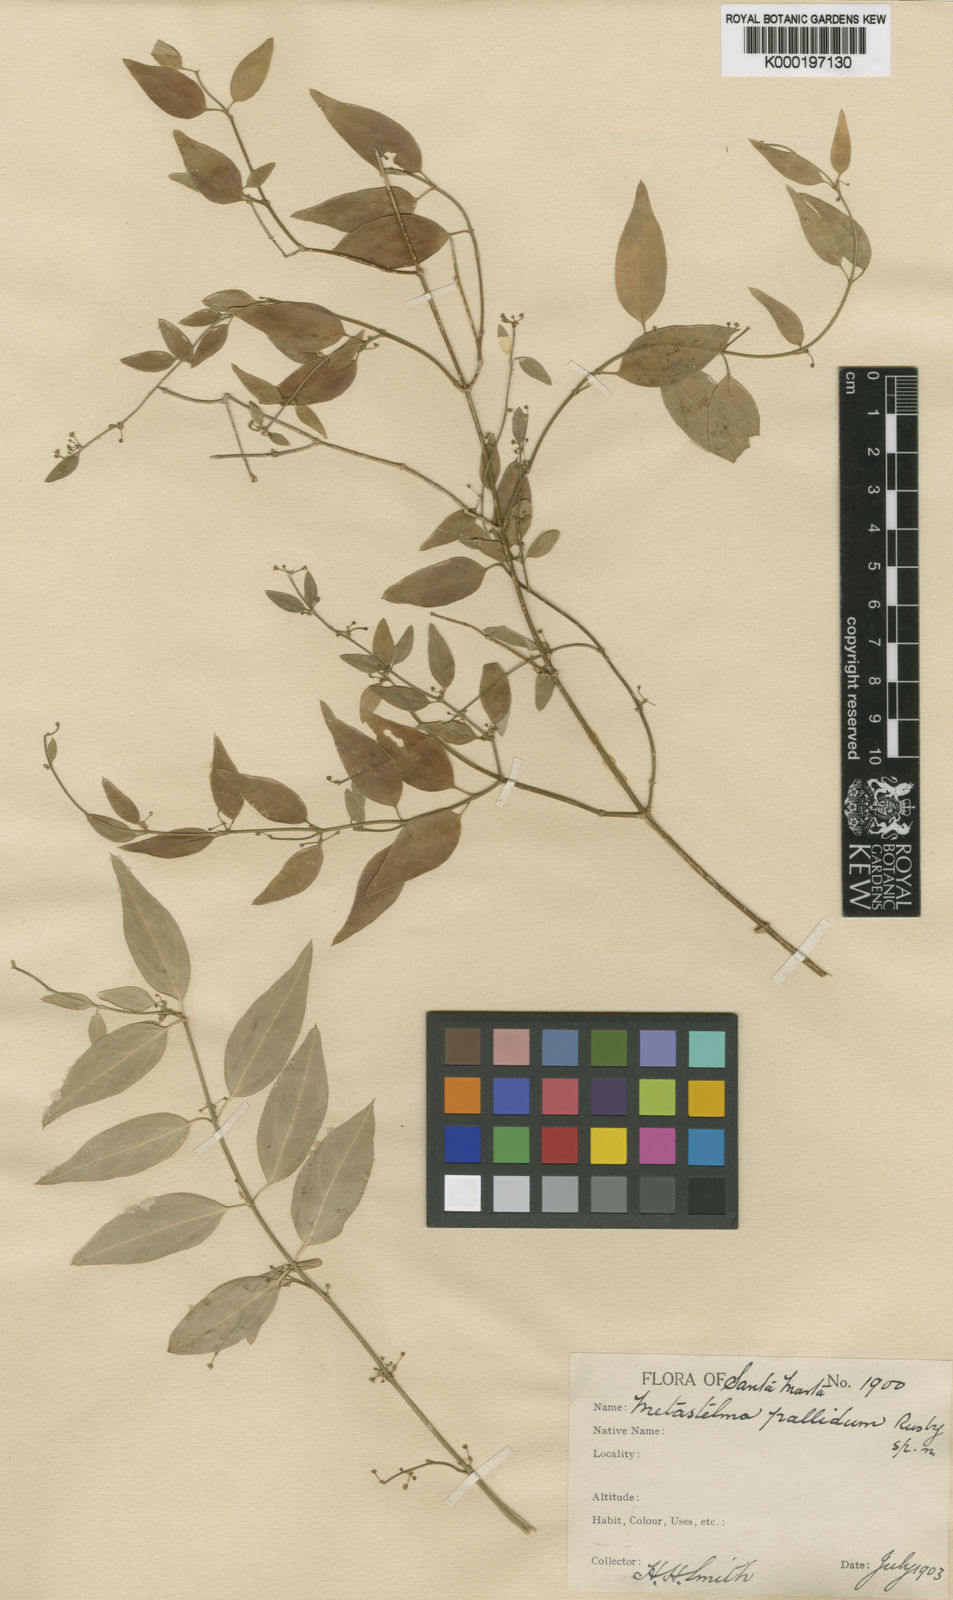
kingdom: Plantae
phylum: Tracheophyta
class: Magnoliopsida
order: Gentianales
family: Apocynaceae
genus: Orthosia
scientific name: Orthosia guilleminiana
